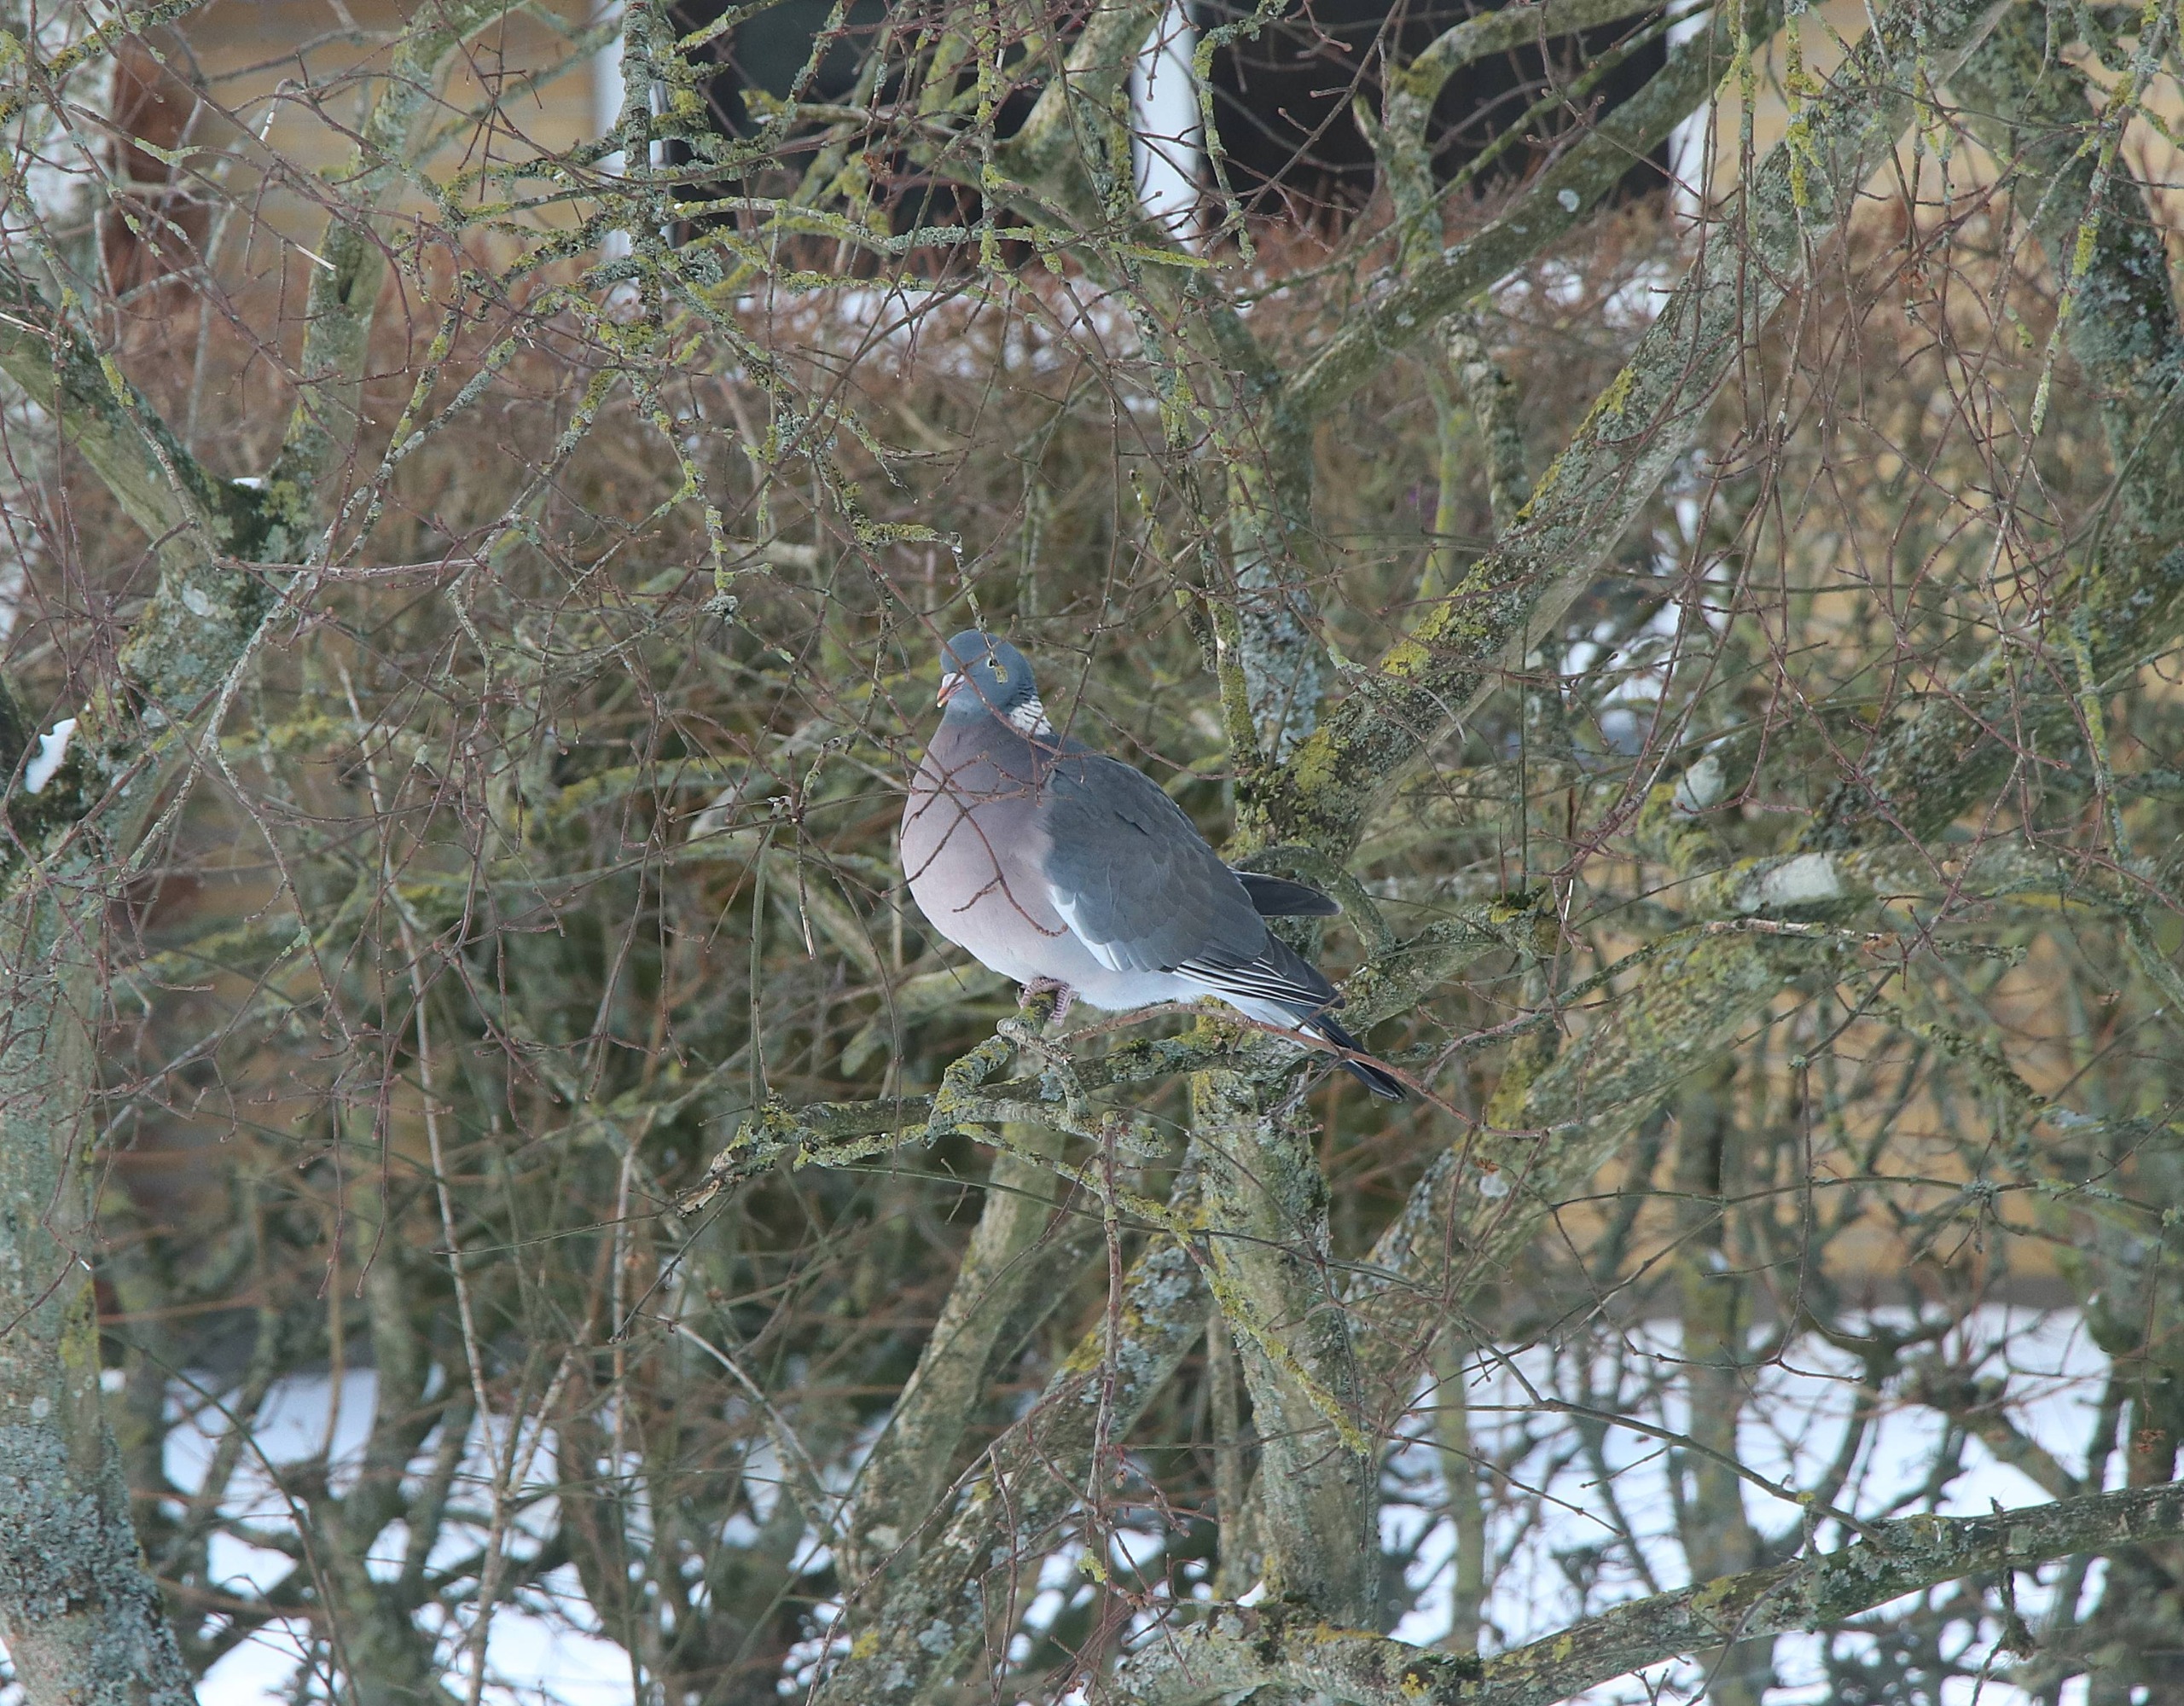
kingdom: Animalia
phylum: Chordata
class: Aves
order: Columbiformes
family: Columbidae
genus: Columba
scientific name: Columba palumbus
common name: Ringdue
